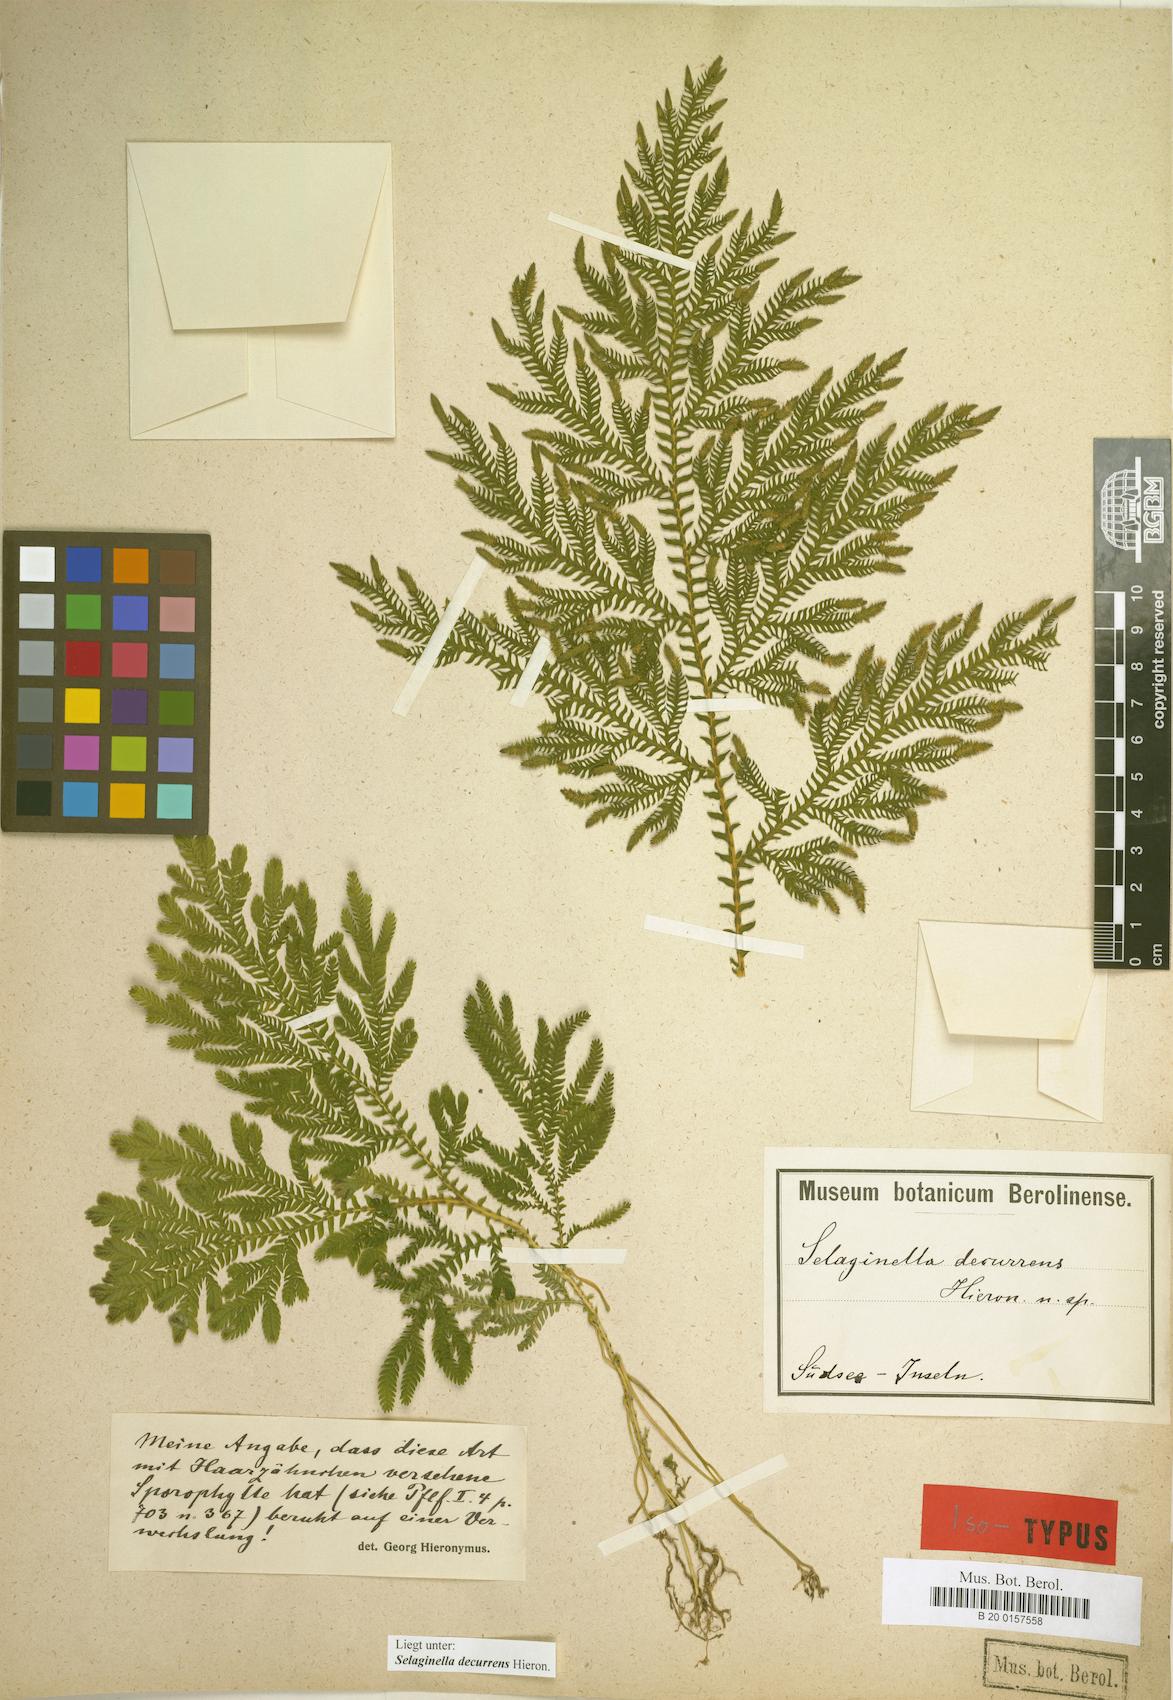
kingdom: Plantae
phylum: Tracheophyta
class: Lycopodiopsida
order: Selaginellales
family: Selaginellaceae
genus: Selaginella
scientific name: Selaginella decurrens
